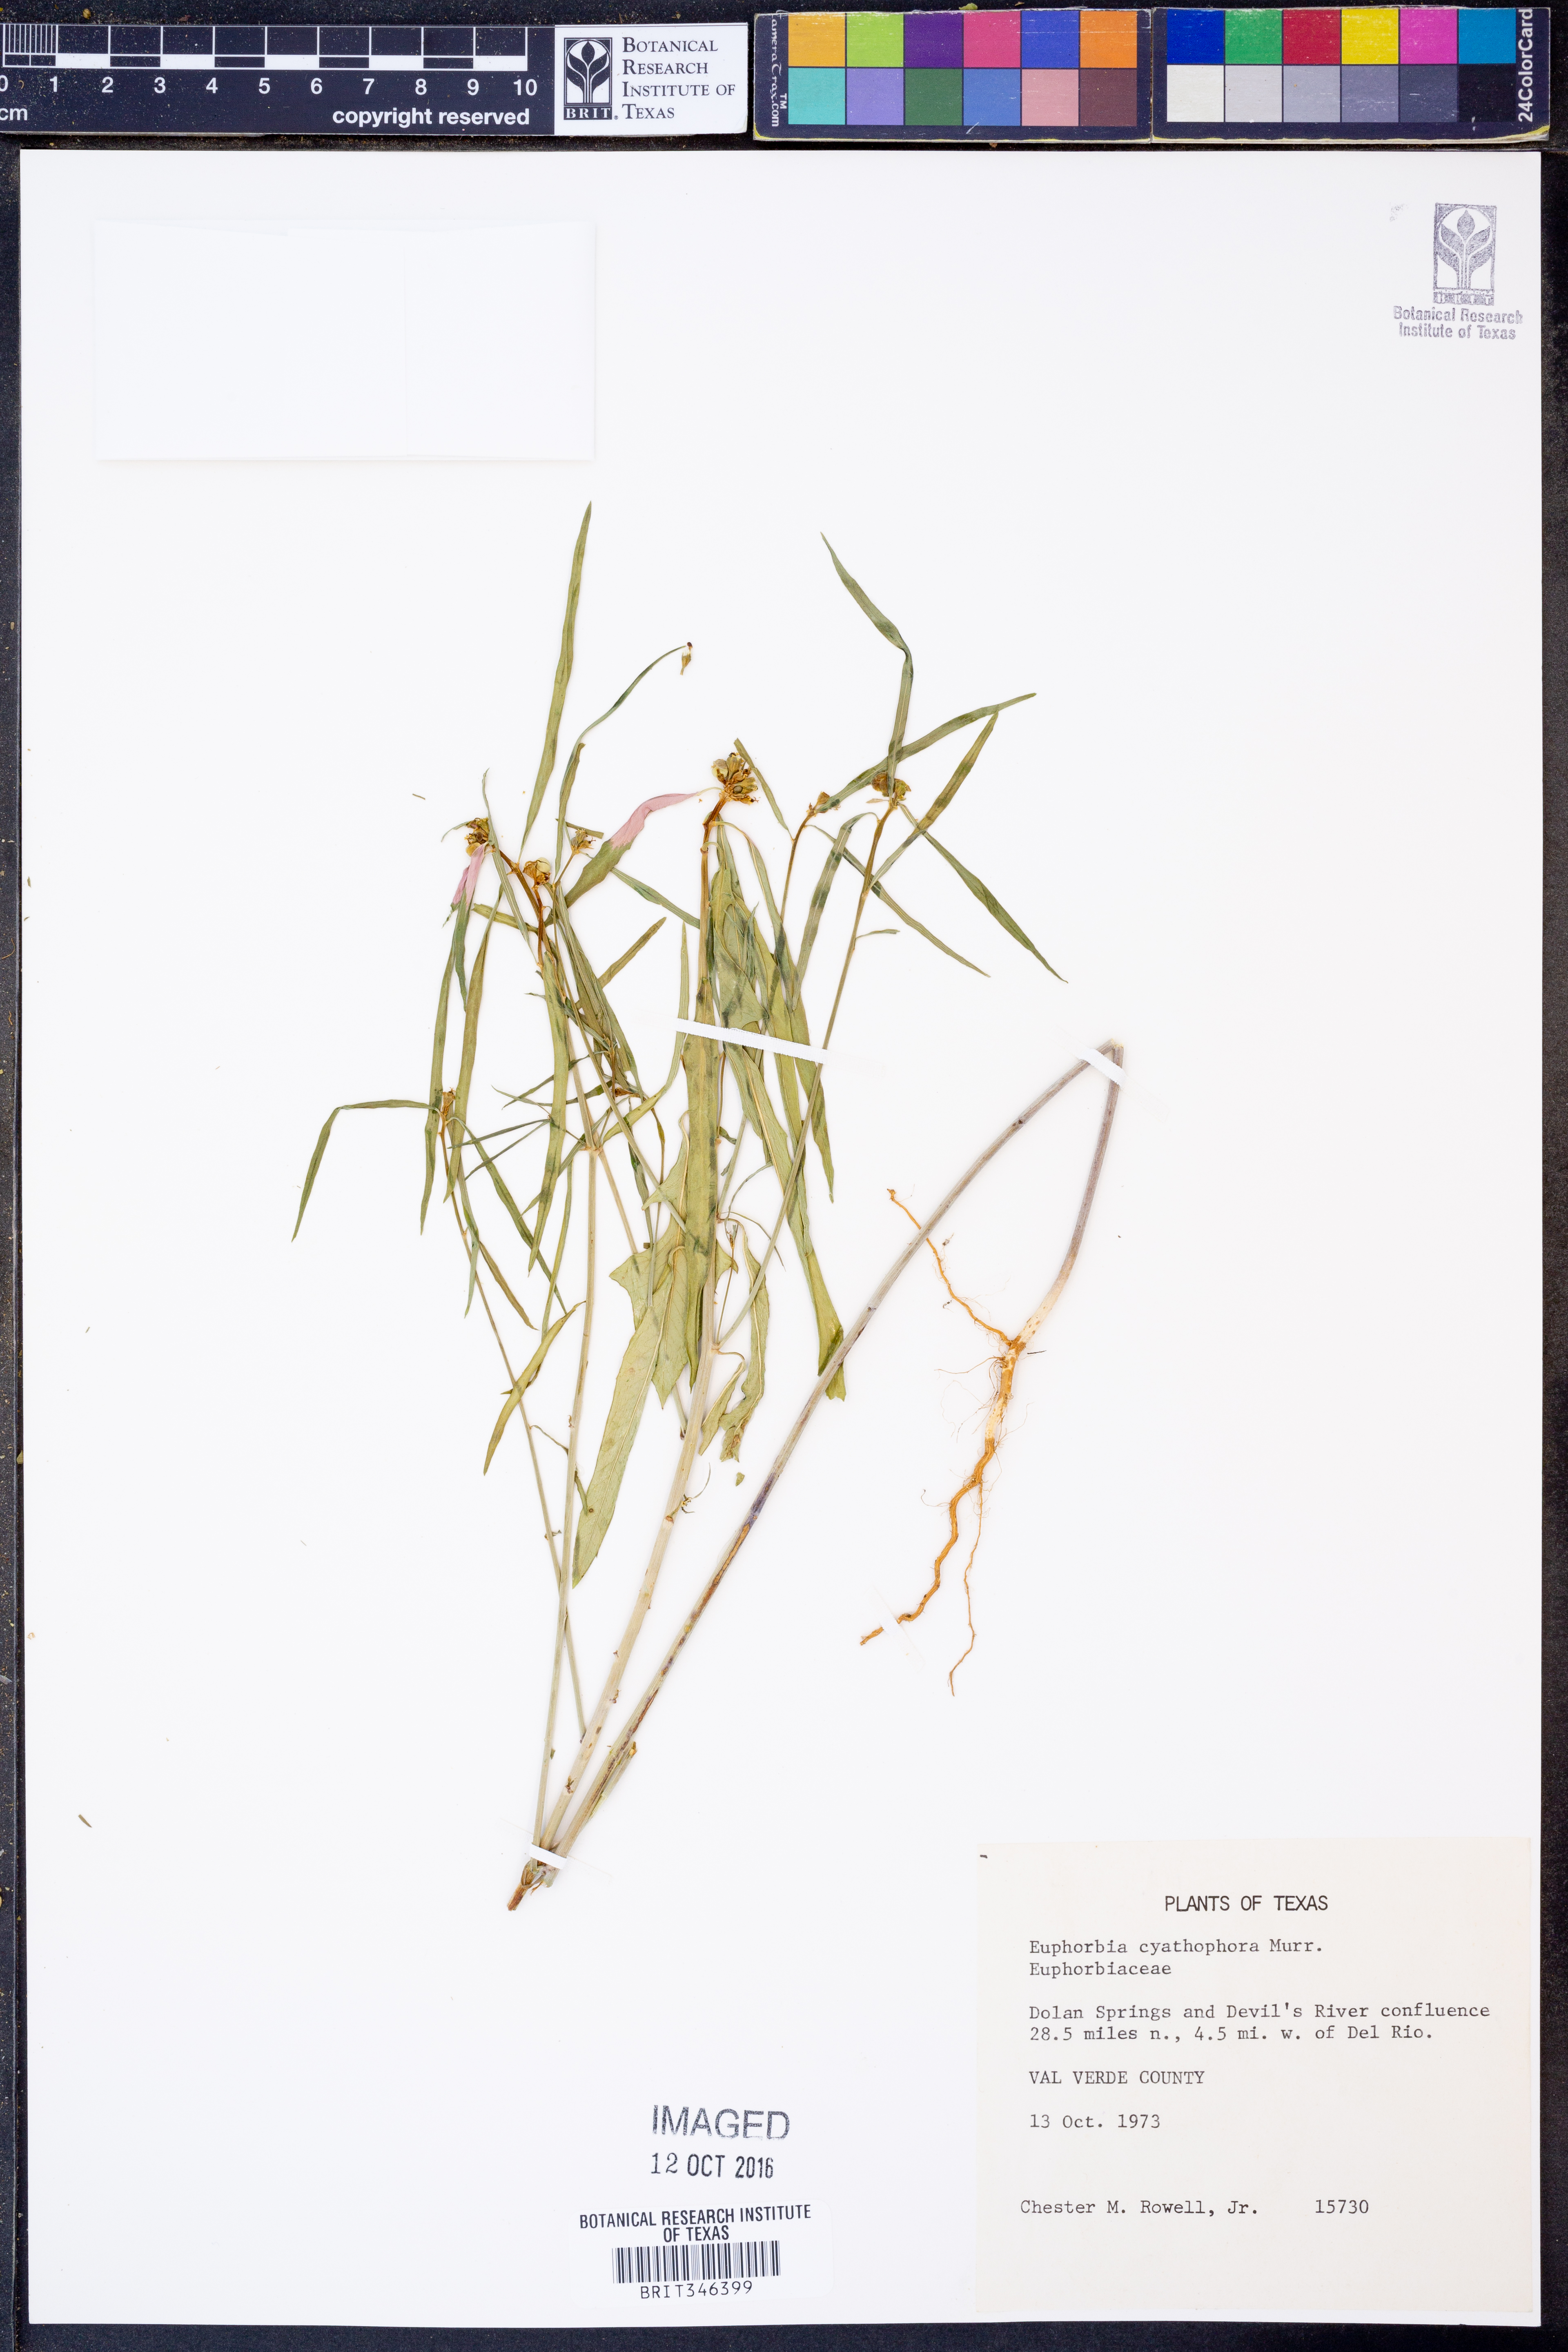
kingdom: Plantae
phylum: Tracheophyta
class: Magnoliopsida
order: Malpighiales
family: Euphorbiaceae
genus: Euphorbia
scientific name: Euphorbia heterophylla
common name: Mexican fireplant
